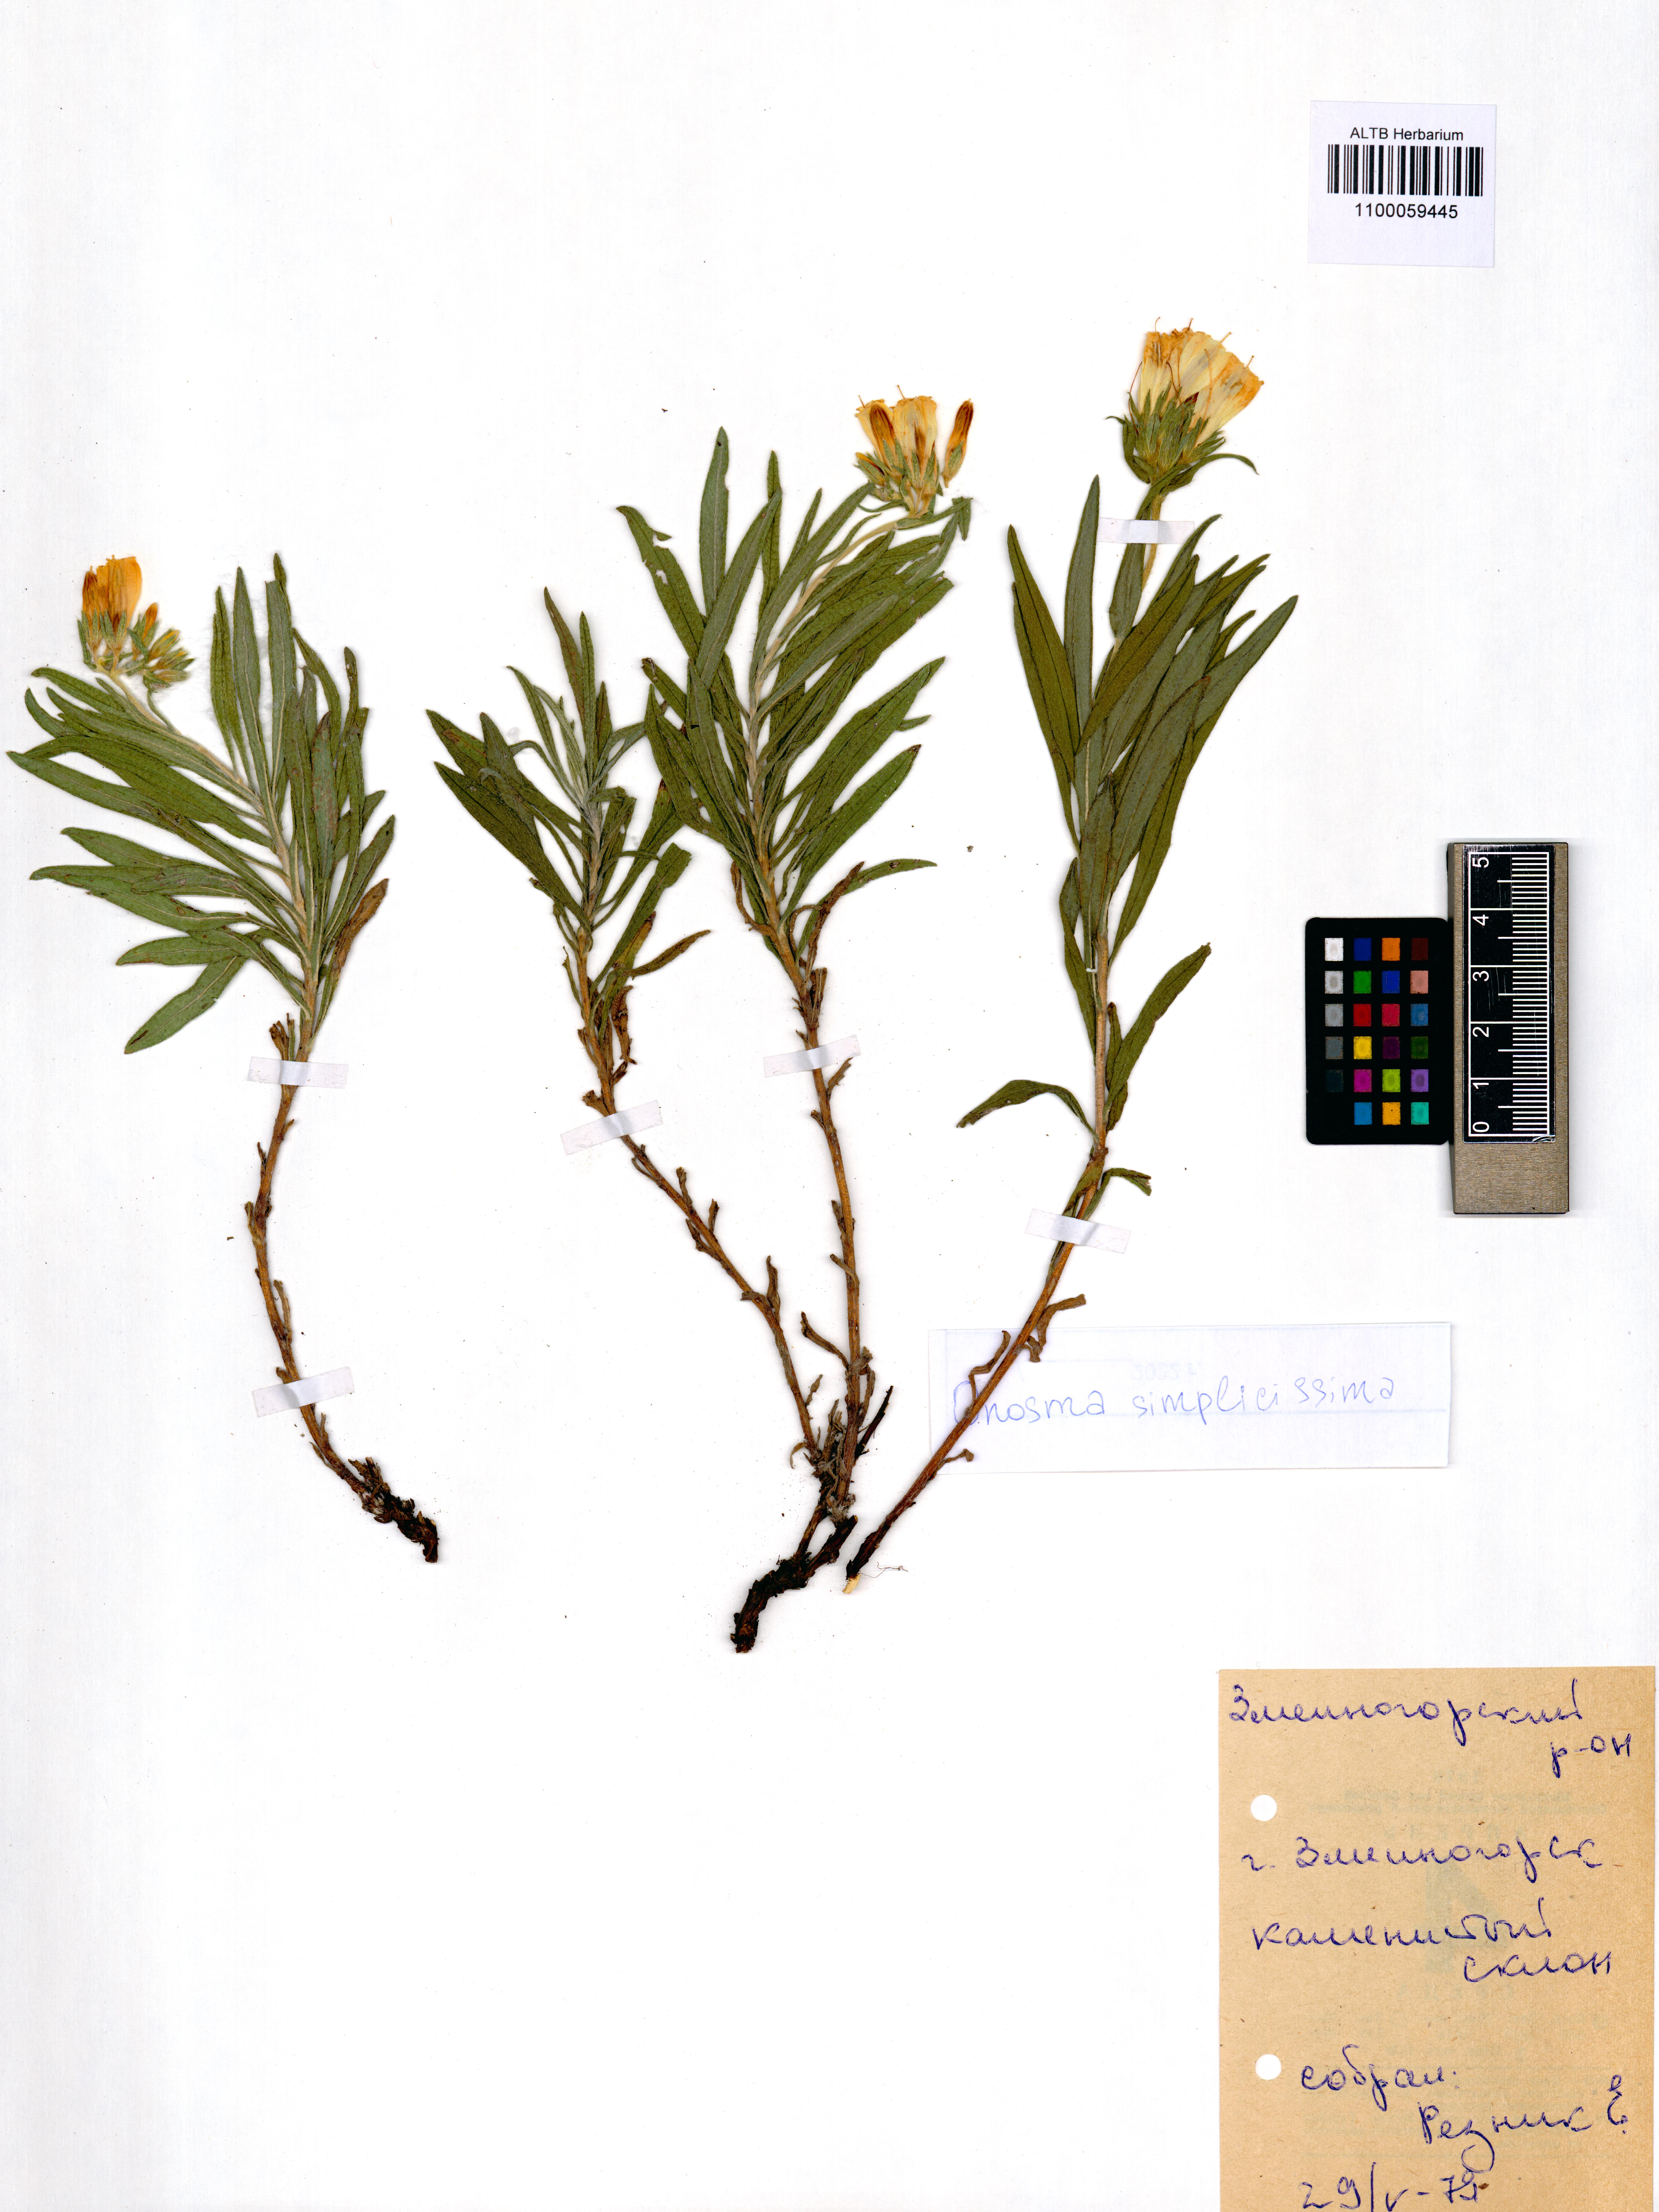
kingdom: Plantae
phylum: Tracheophyta
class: Magnoliopsida
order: Boraginales
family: Boraginaceae
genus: Onosma
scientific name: Onosma simplicissima
